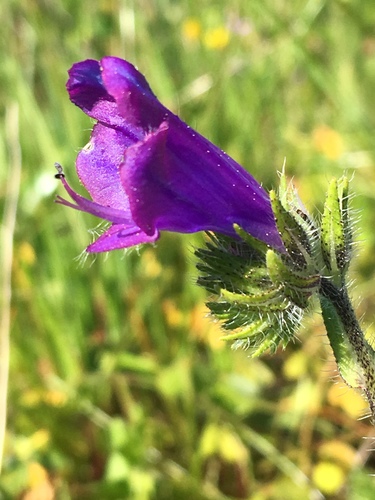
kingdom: Plantae
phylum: Tracheophyta
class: Magnoliopsida
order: Boraginales
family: Boraginaceae
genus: Echium
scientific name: Echium plantagineum
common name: Purple viper's-bugloss
